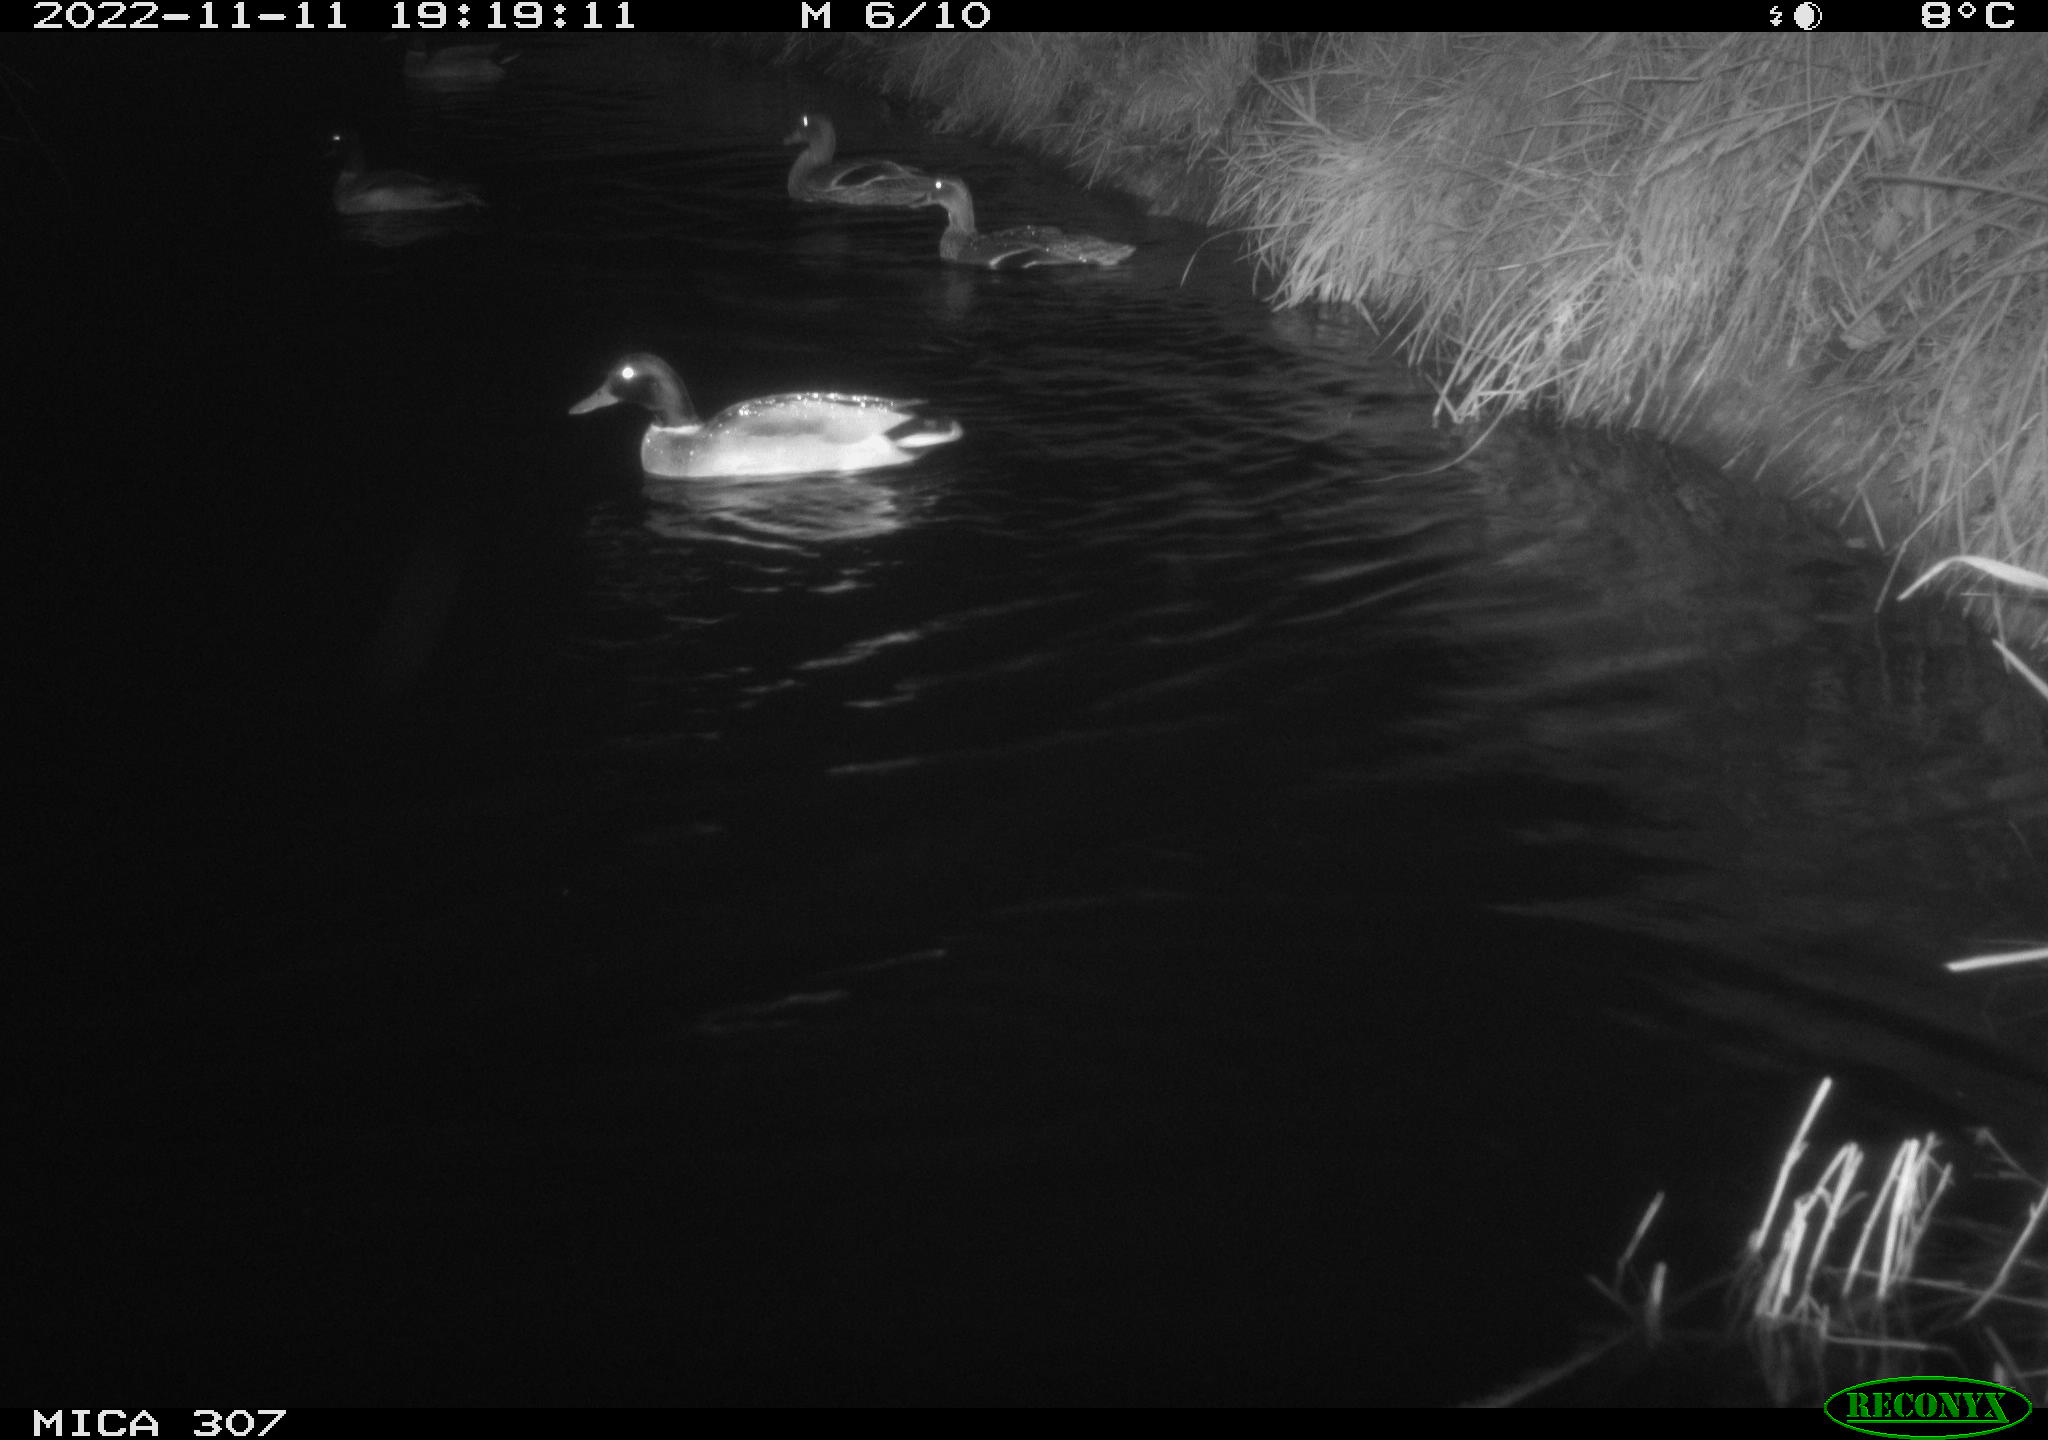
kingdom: Animalia
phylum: Chordata
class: Aves
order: Anseriformes
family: Anatidae
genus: Anas
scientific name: Anas
